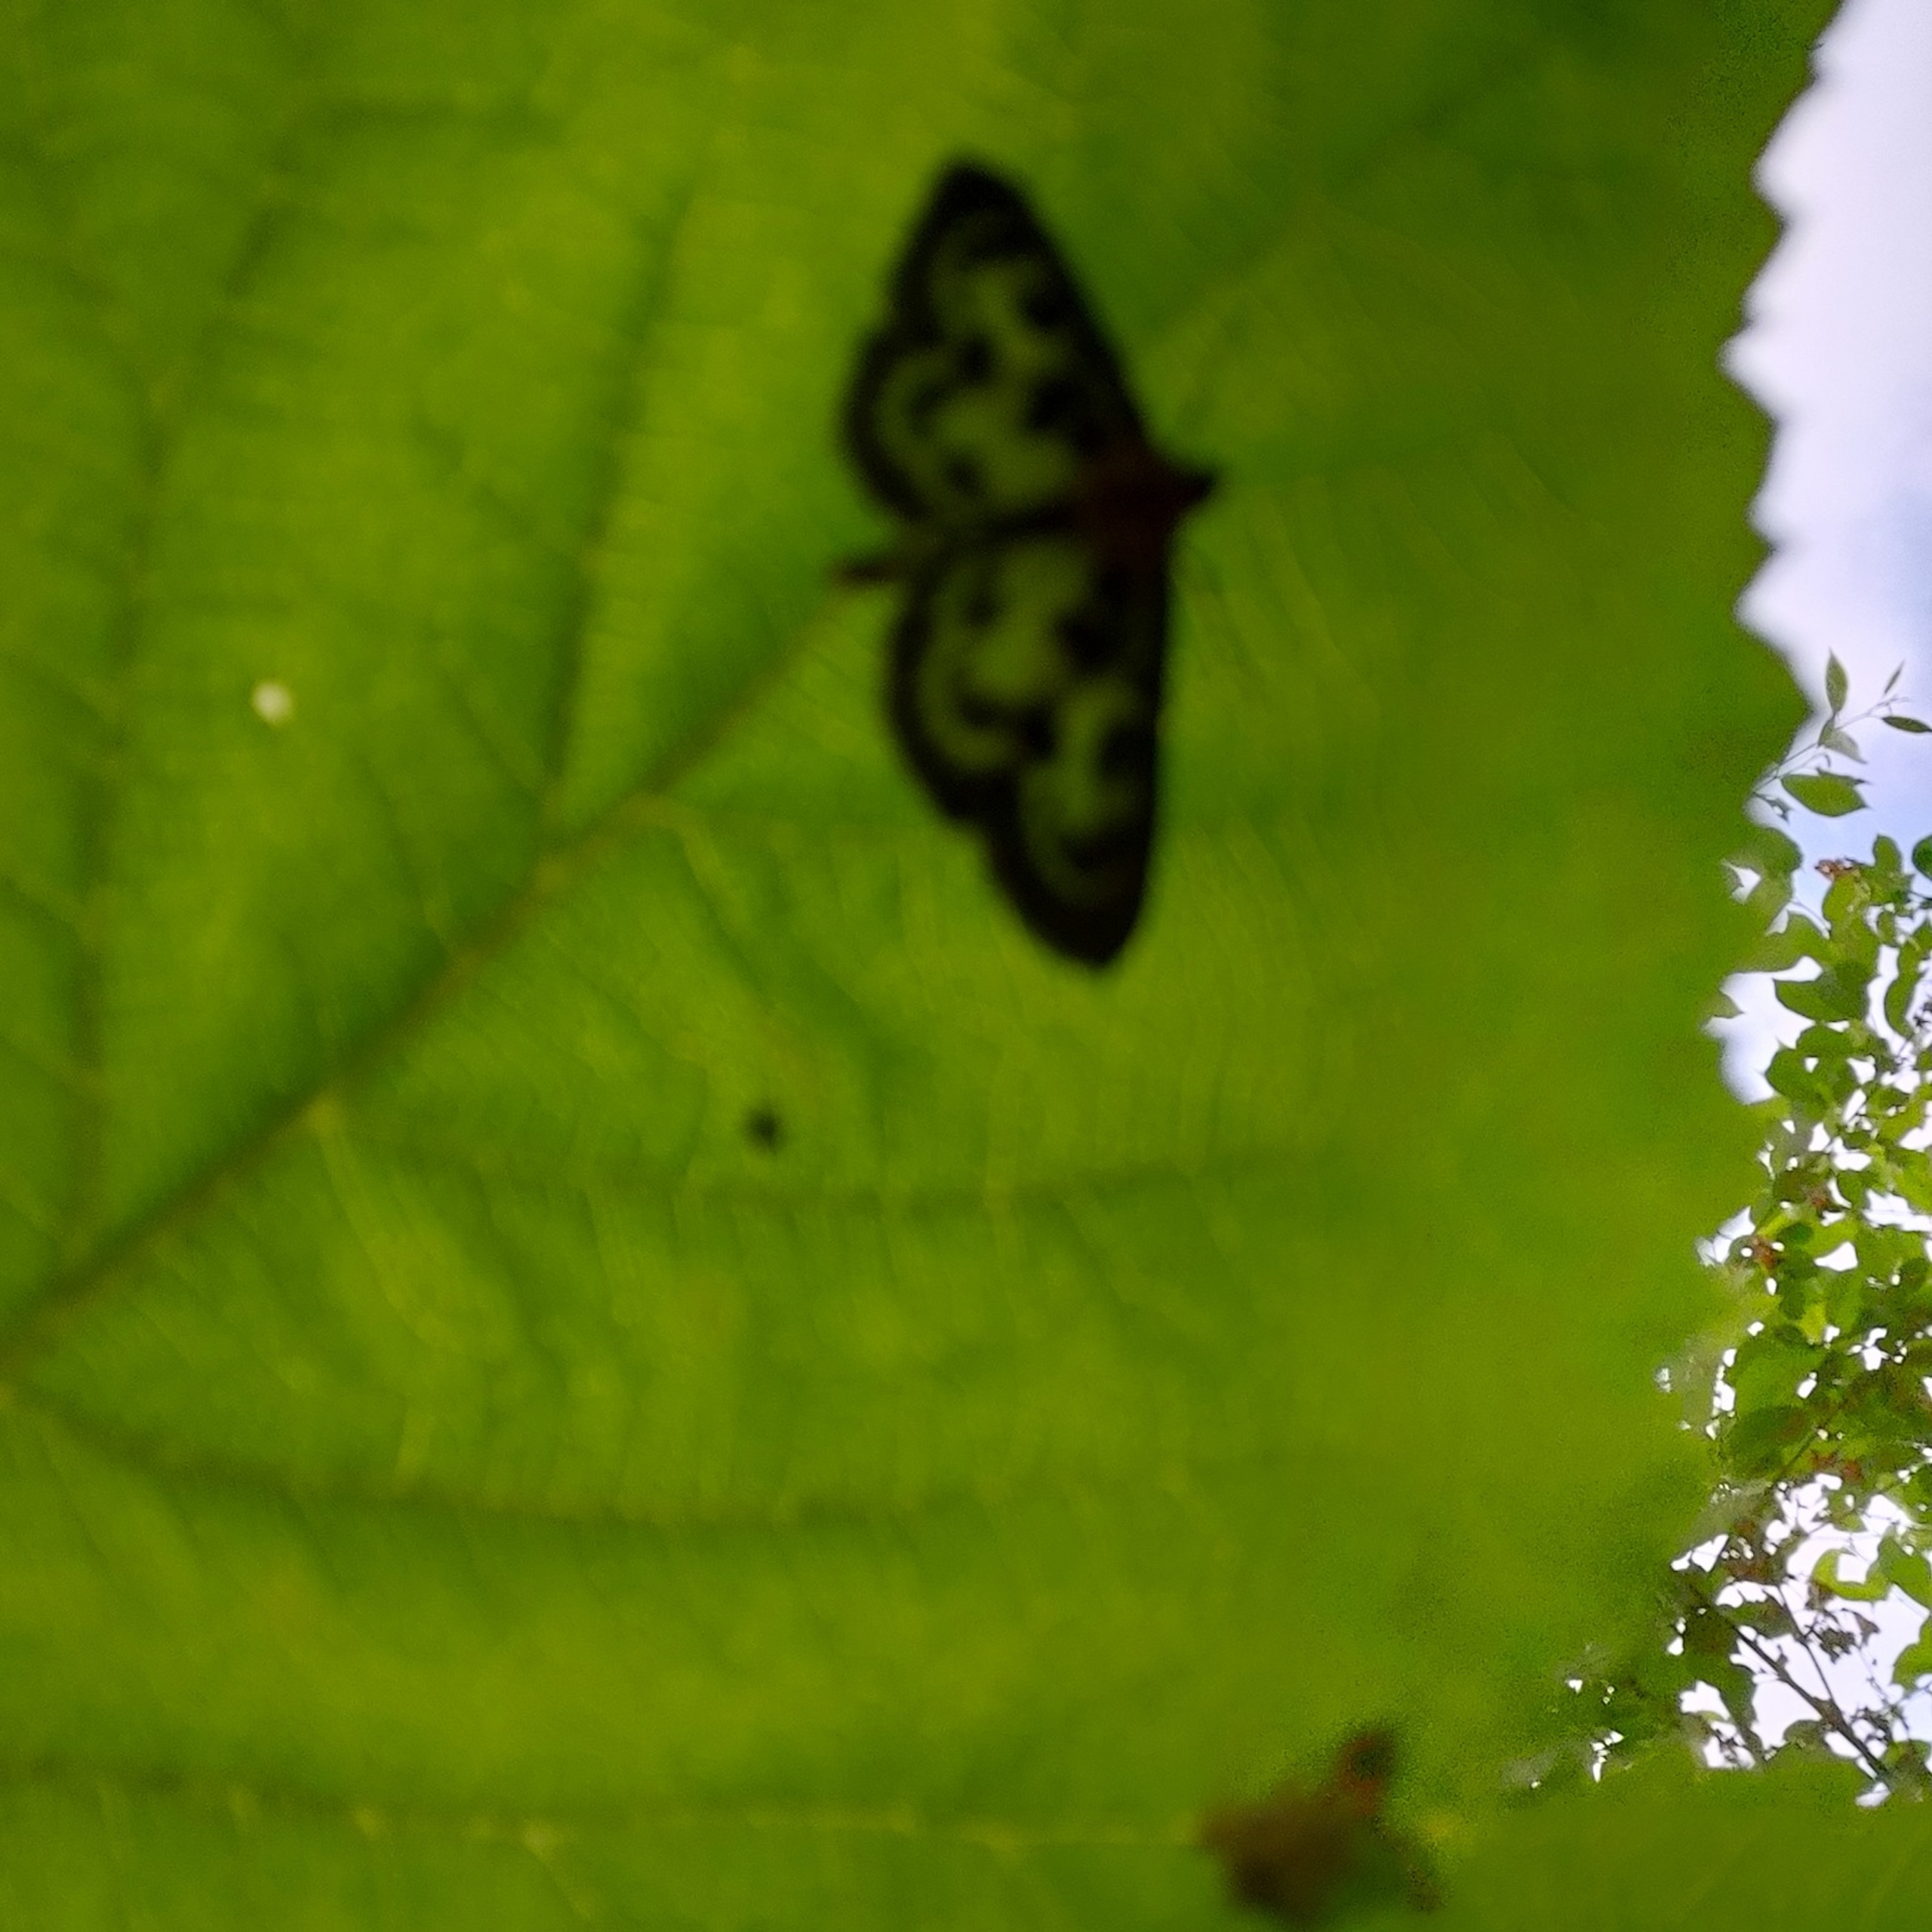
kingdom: Animalia
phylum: Arthropoda
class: Insecta
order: Lepidoptera
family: Crambidae
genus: Anania
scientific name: Anania hortulata
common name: Nældehalvmøl
